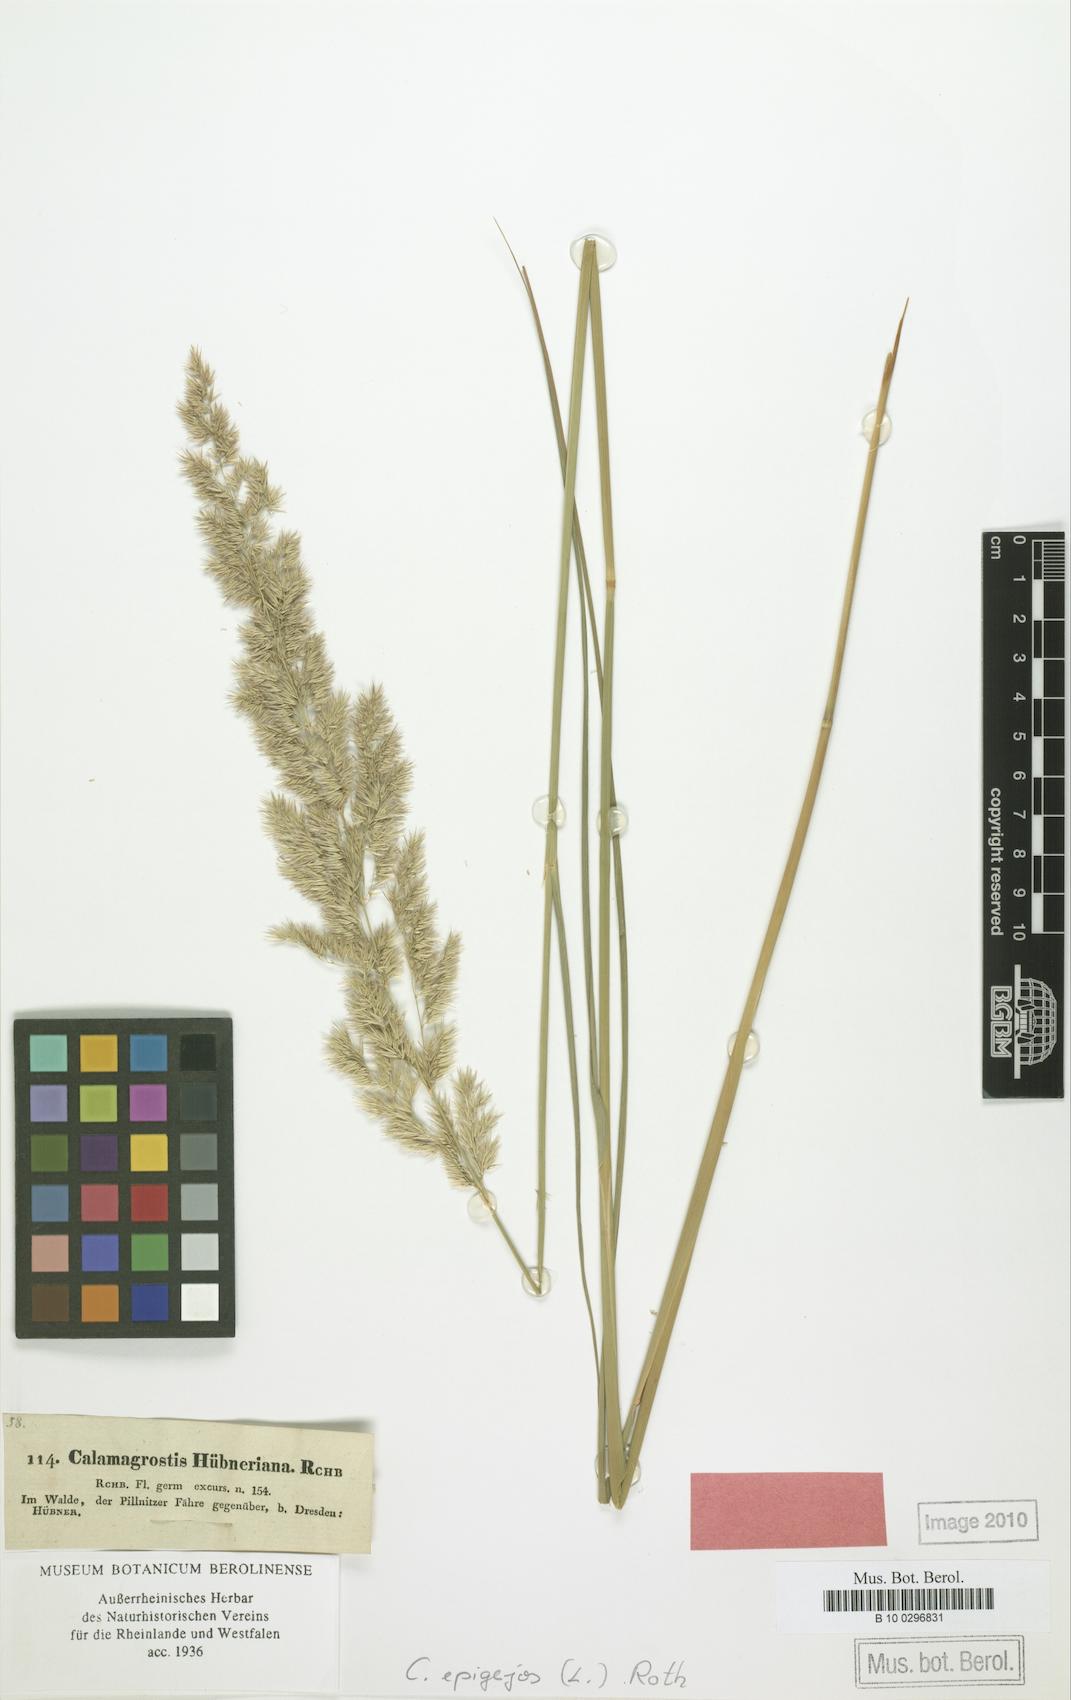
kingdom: Plantae
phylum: Tracheophyta
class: Liliopsida
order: Poales
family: Poaceae
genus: Calamagrostis
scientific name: Calamagrostis epigejos
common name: Wood small-reed
